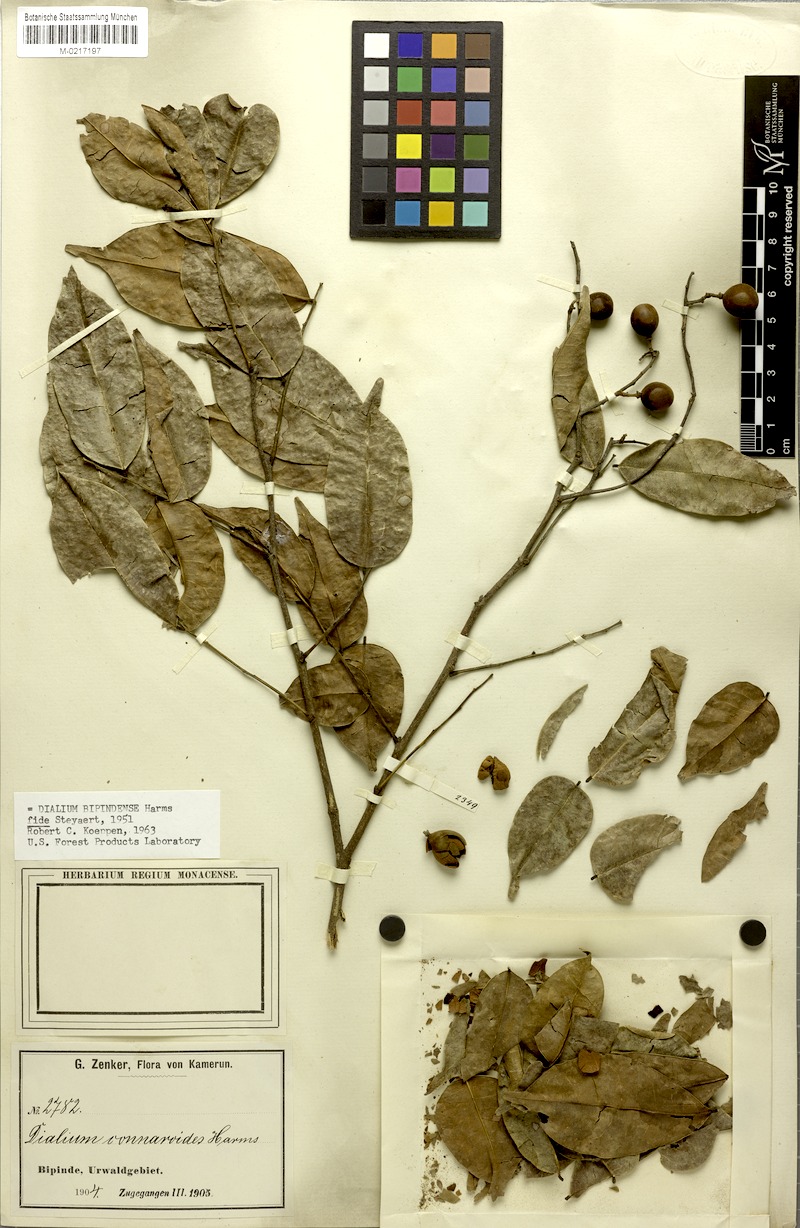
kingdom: Plantae
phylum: Tracheophyta
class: Magnoliopsida
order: Fabales
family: Fabaceae
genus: Dialium
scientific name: Dialium bipindense
